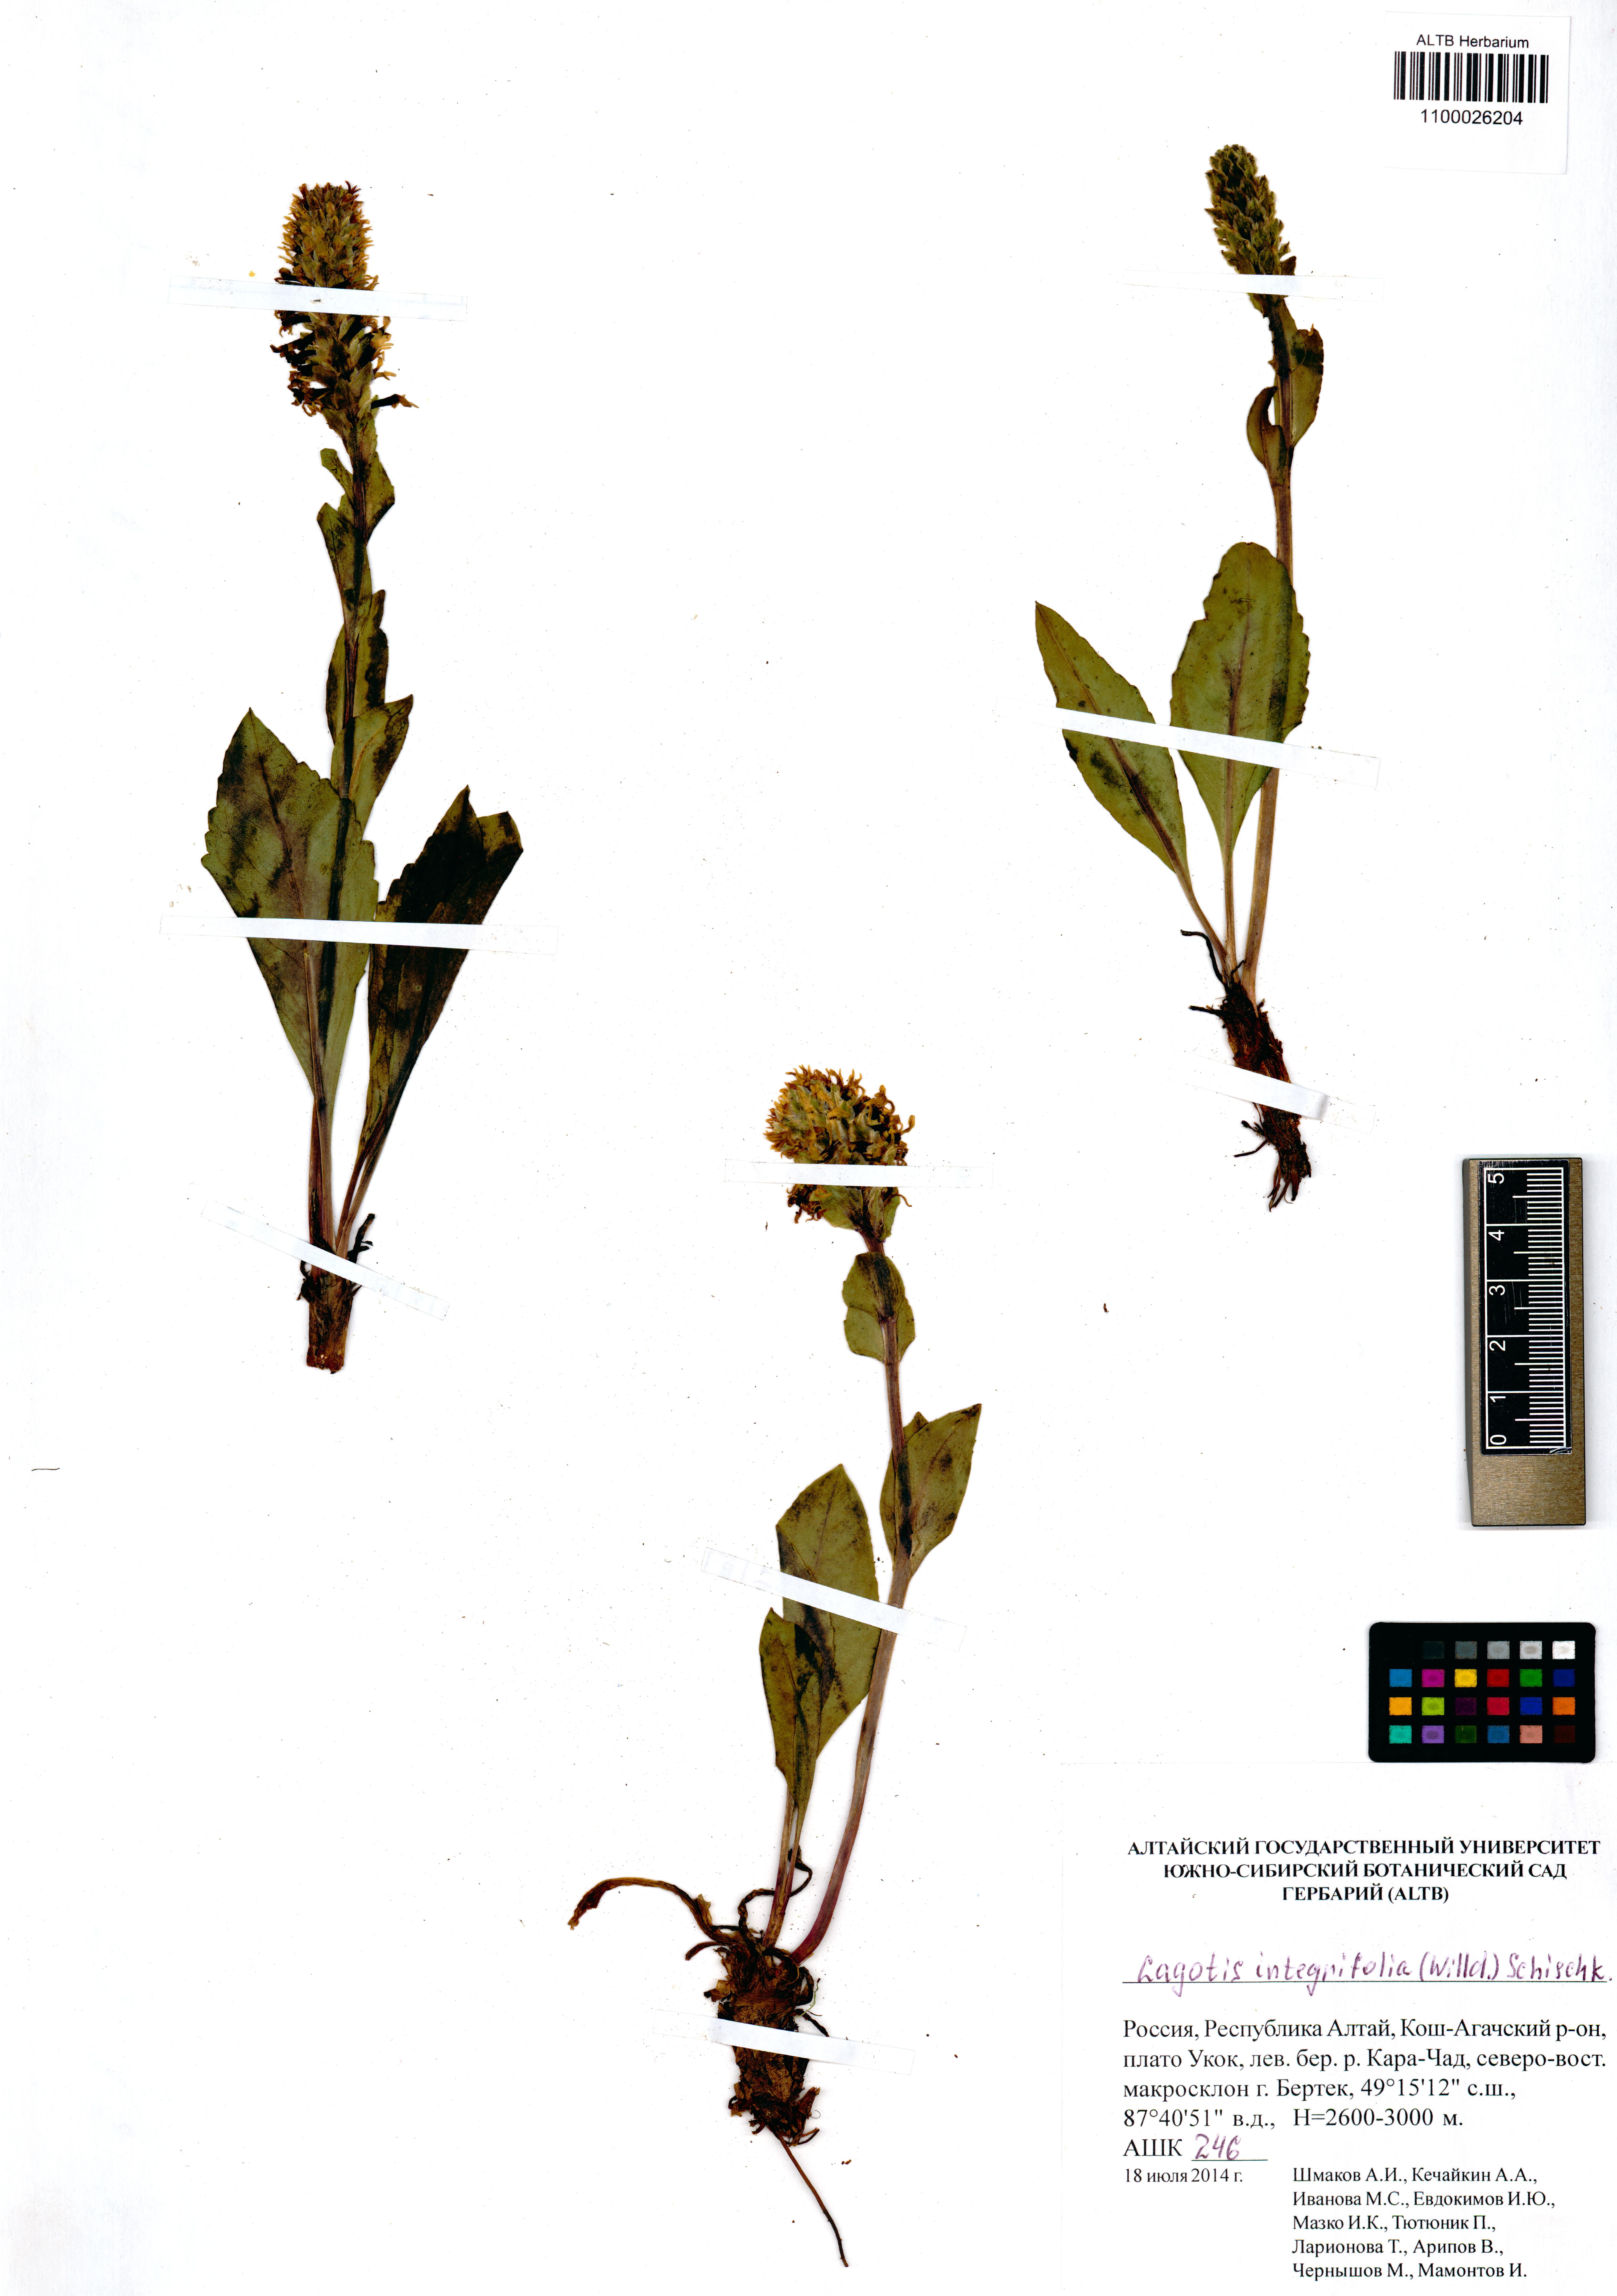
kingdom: Plantae
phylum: Tracheophyta
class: Magnoliopsida
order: Lamiales
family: Plantaginaceae
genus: Lagotis
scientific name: Lagotis integrifolia
